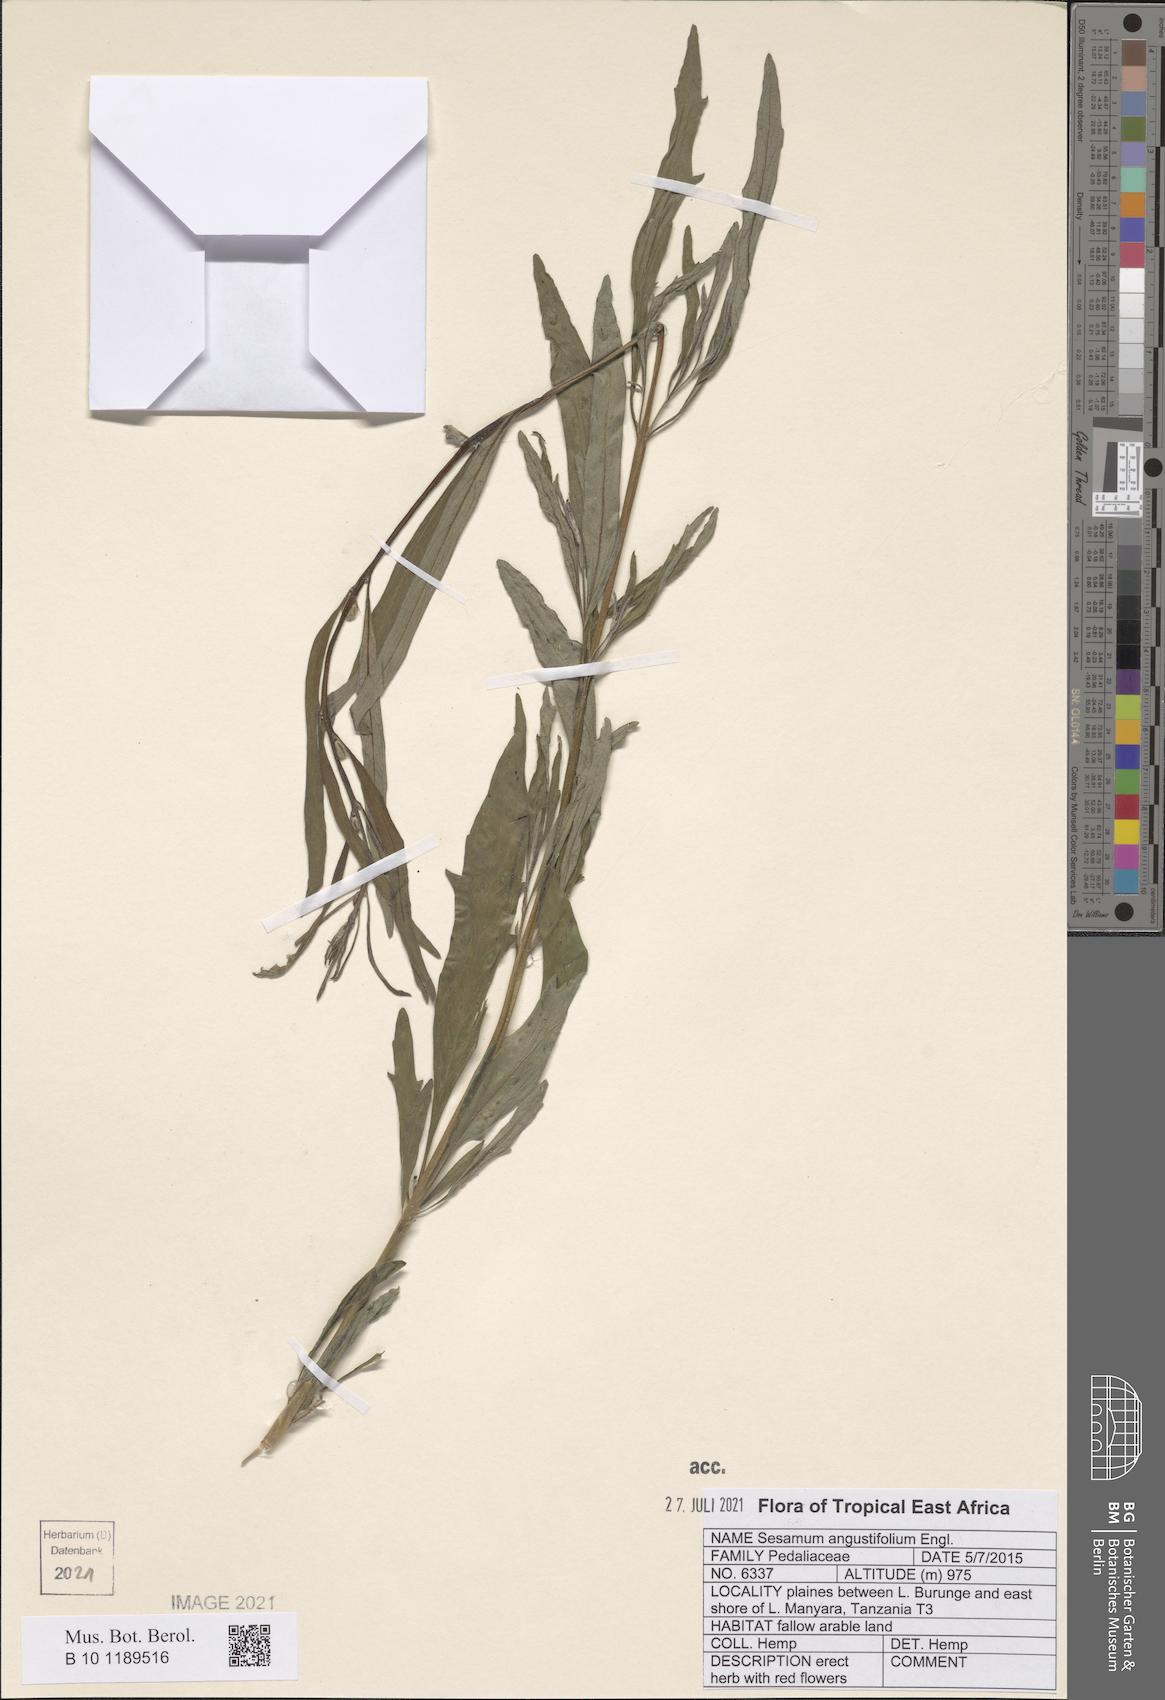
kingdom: Plantae
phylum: Tracheophyta
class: Magnoliopsida
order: Lamiales
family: Pedaliaceae
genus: Sesamum
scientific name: Sesamum angustifolium
